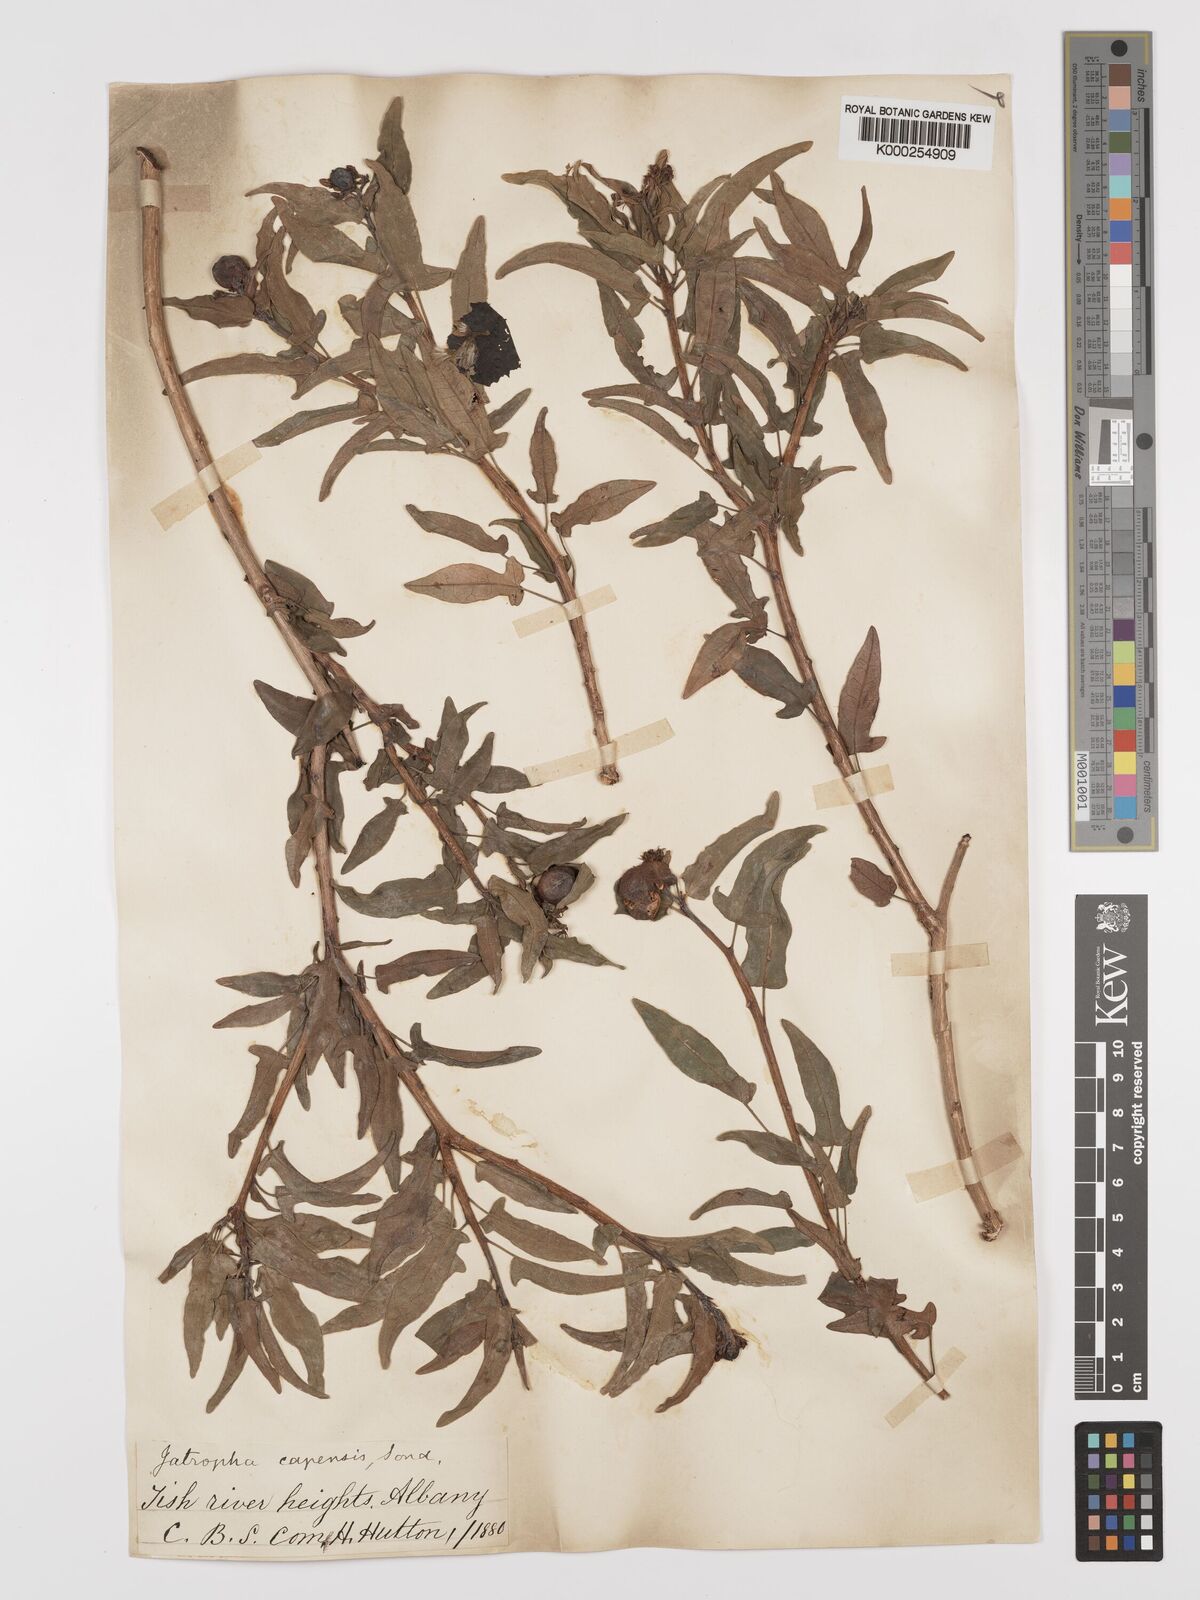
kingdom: Plantae
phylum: Tracheophyta
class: Magnoliopsida
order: Malpighiales
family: Euphorbiaceae
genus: Jatropha
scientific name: Jatropha capensis
